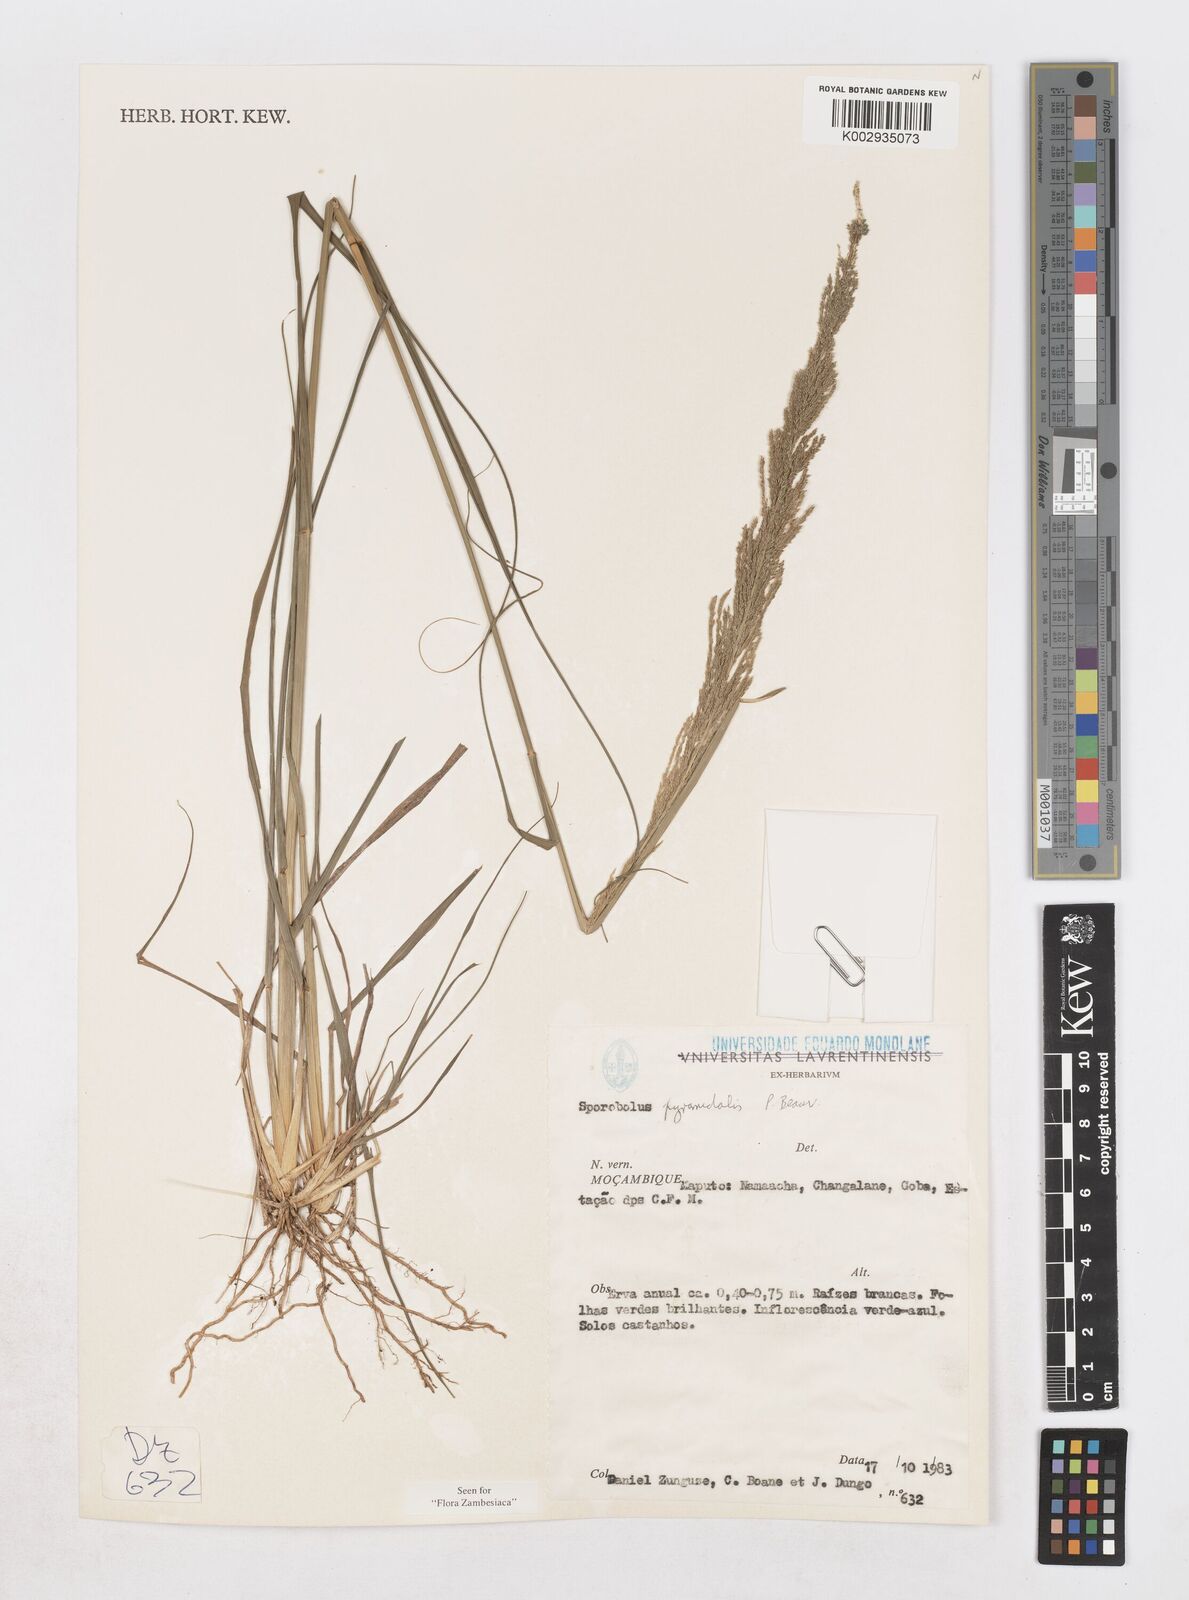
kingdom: Plantae
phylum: Tracheophyta
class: Liliopsida
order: Poales
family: Poaceae
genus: Sporobolus
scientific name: Sporobolus pyramidalis
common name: West indian dropseed
